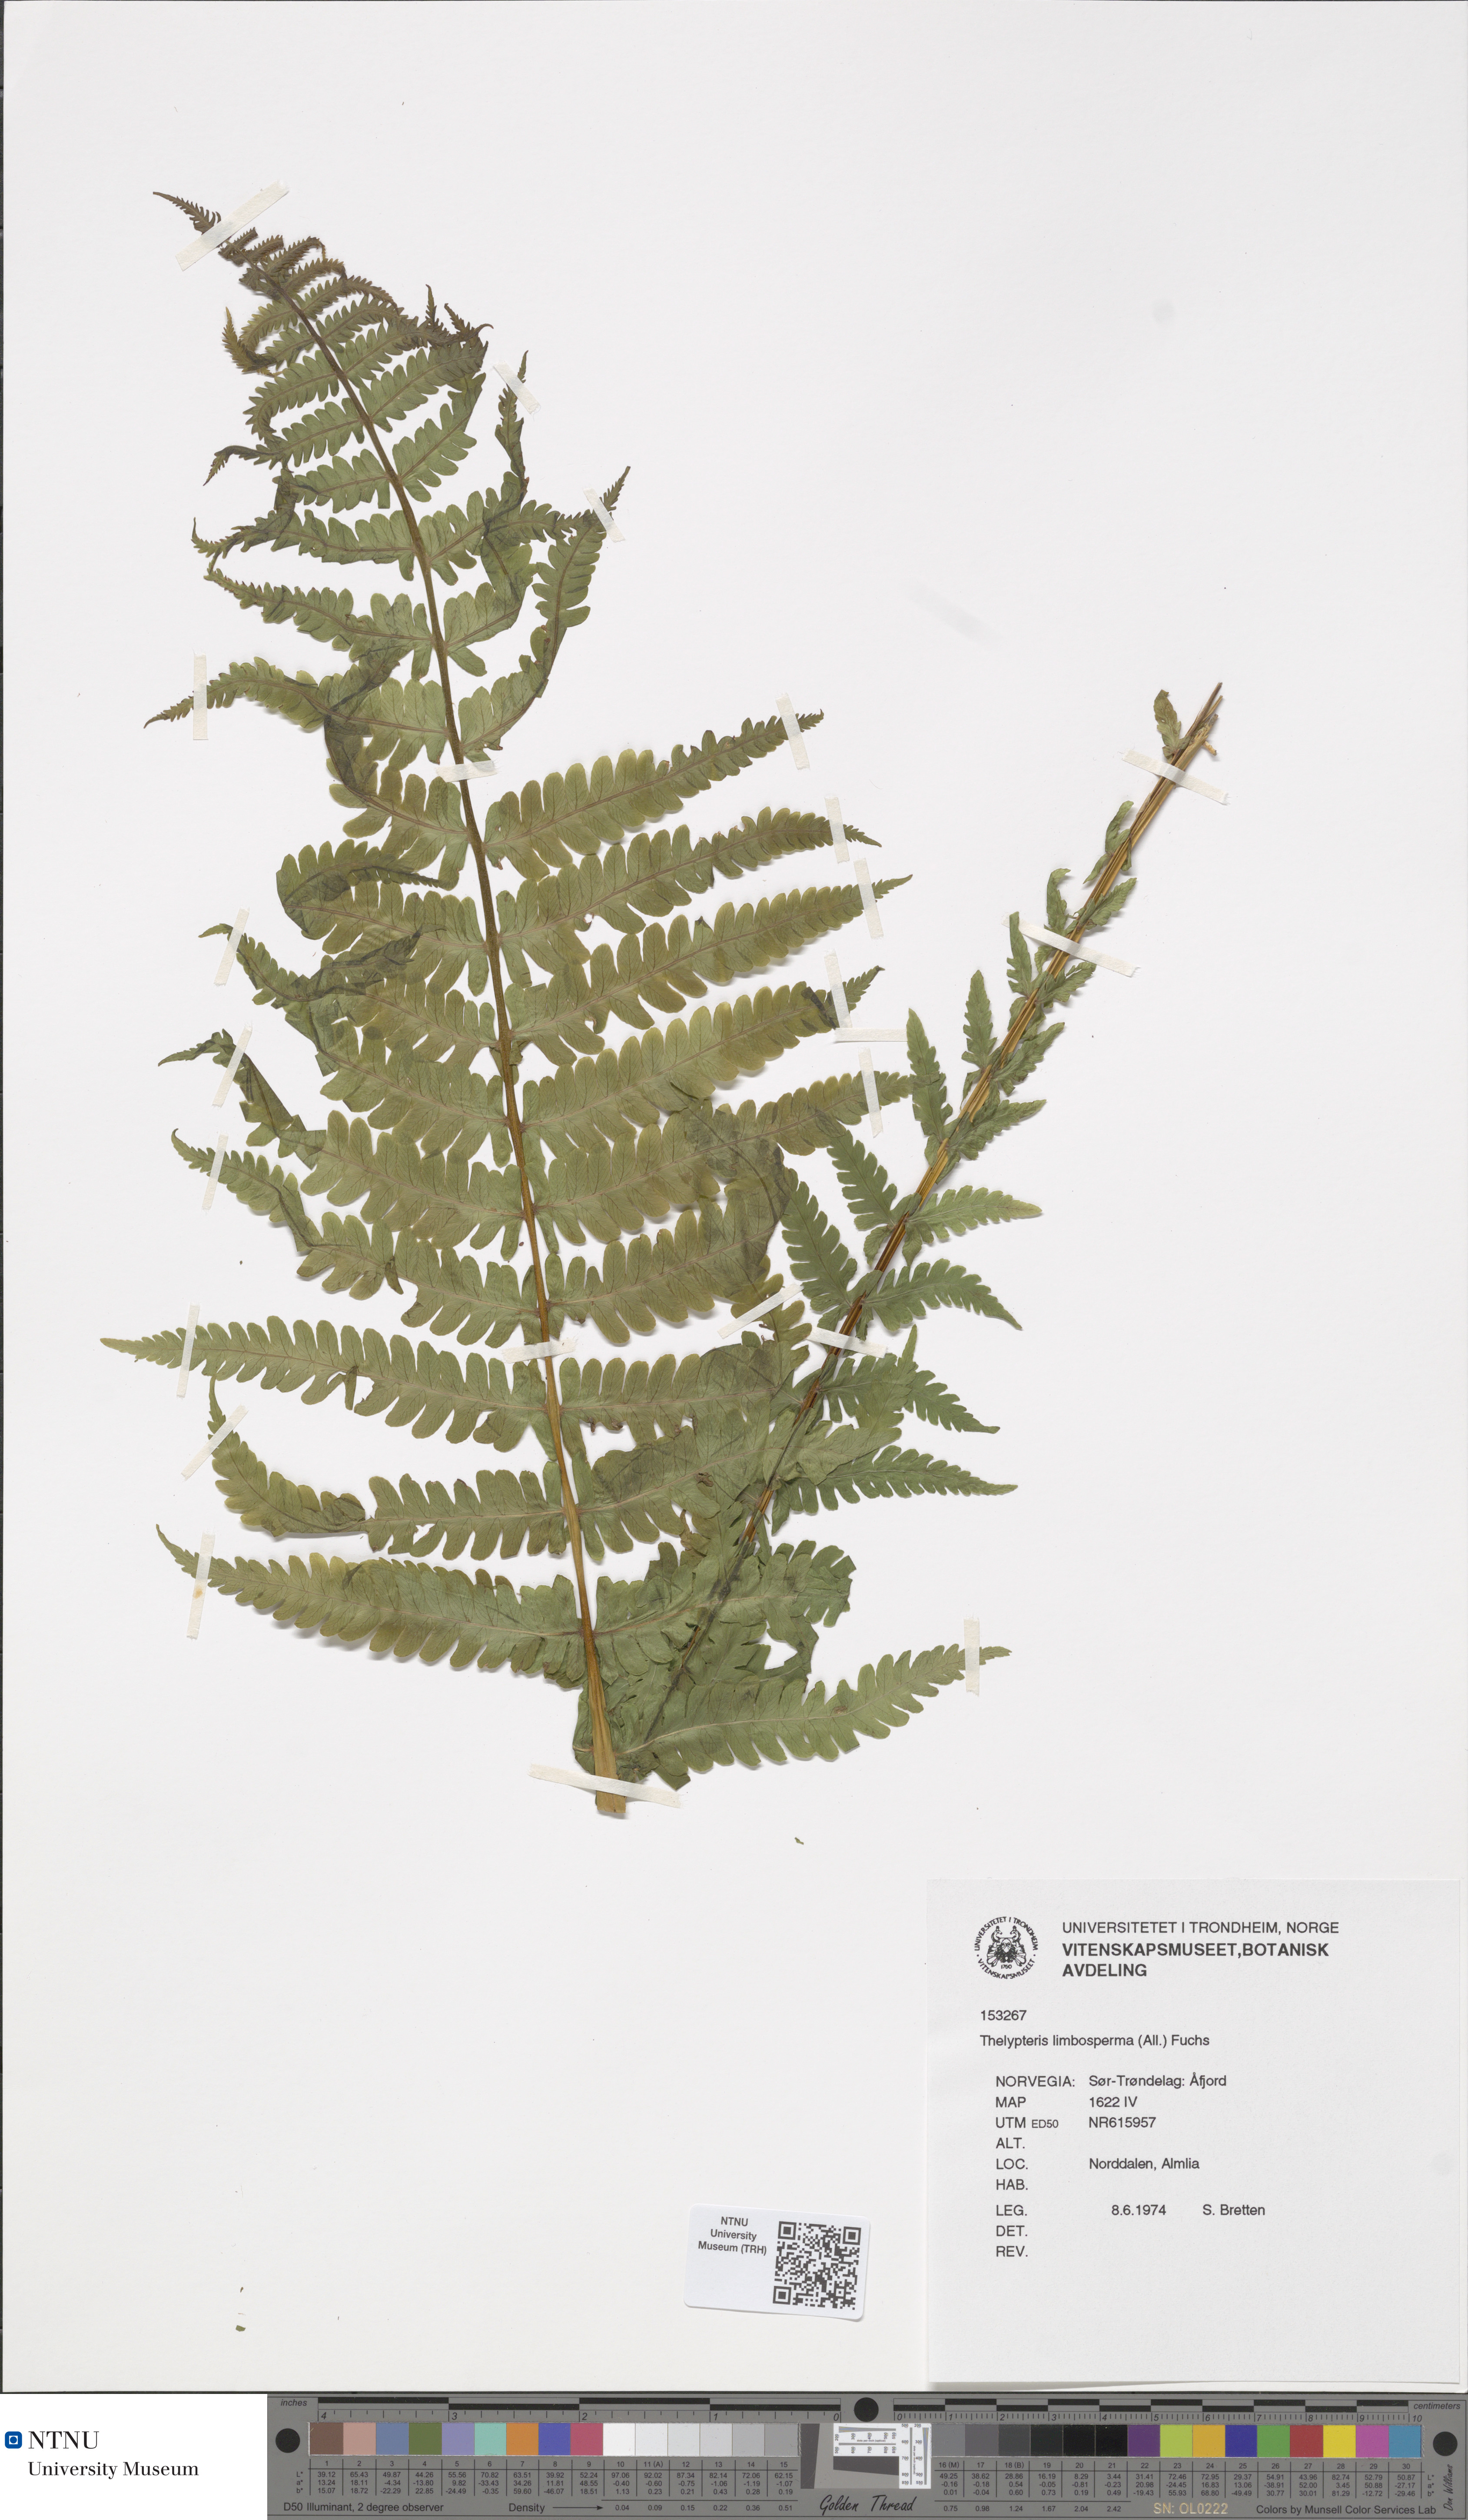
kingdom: Plantae
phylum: Tracheophyta
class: Polypodiopsida
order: Polypodiales
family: Thelypteridaceae
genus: Oreopteris
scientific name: Oreopteris limbosperma
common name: Lemon-scented fern
